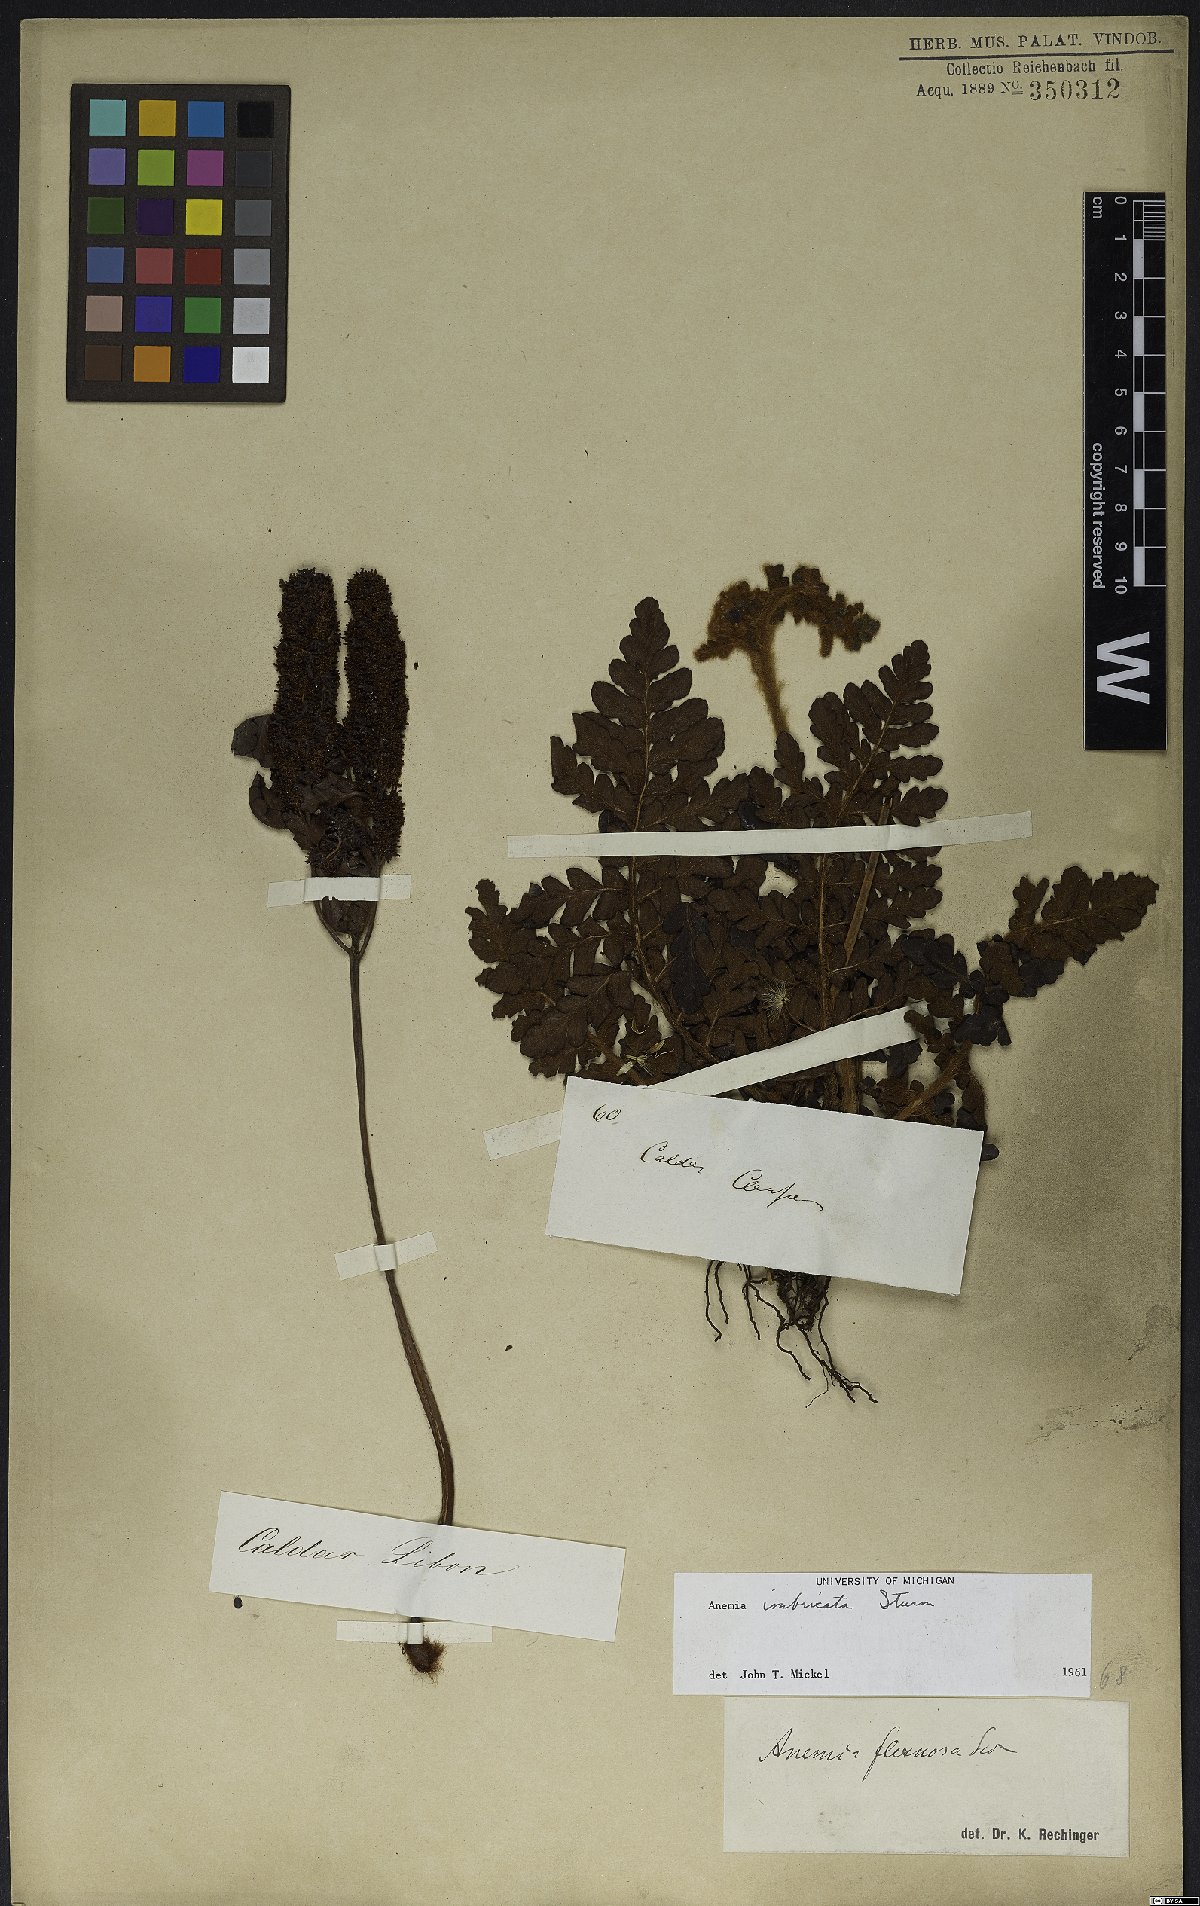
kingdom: Plantae
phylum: Tracheophyta
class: Polypodiopsida
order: Schizaeales
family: Anemiaceae
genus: Anemia
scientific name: Anemia imbricata
